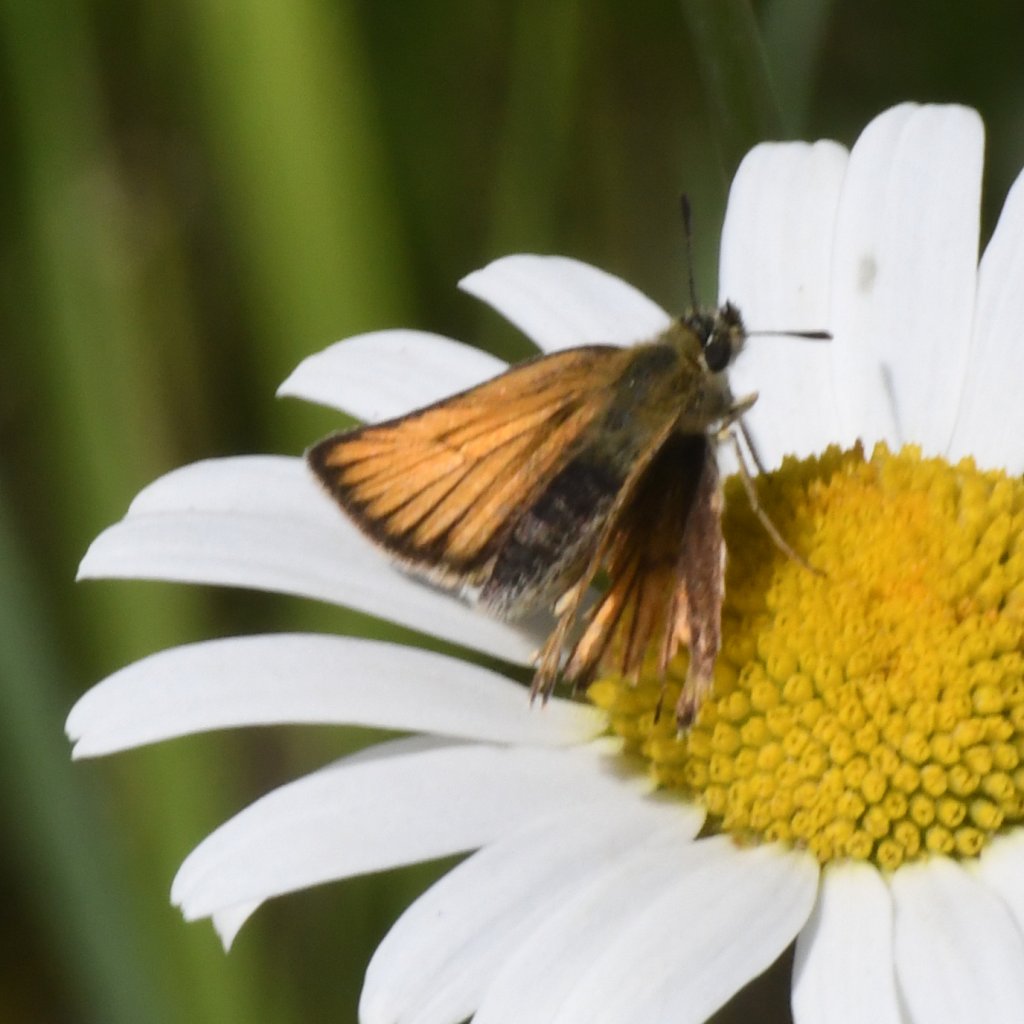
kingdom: Animalia
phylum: Arthropoda
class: Insecta
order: Lepidoptera
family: Hesperiidae
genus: Thymelicus
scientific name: Thymelicus lineola
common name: European Skipper
